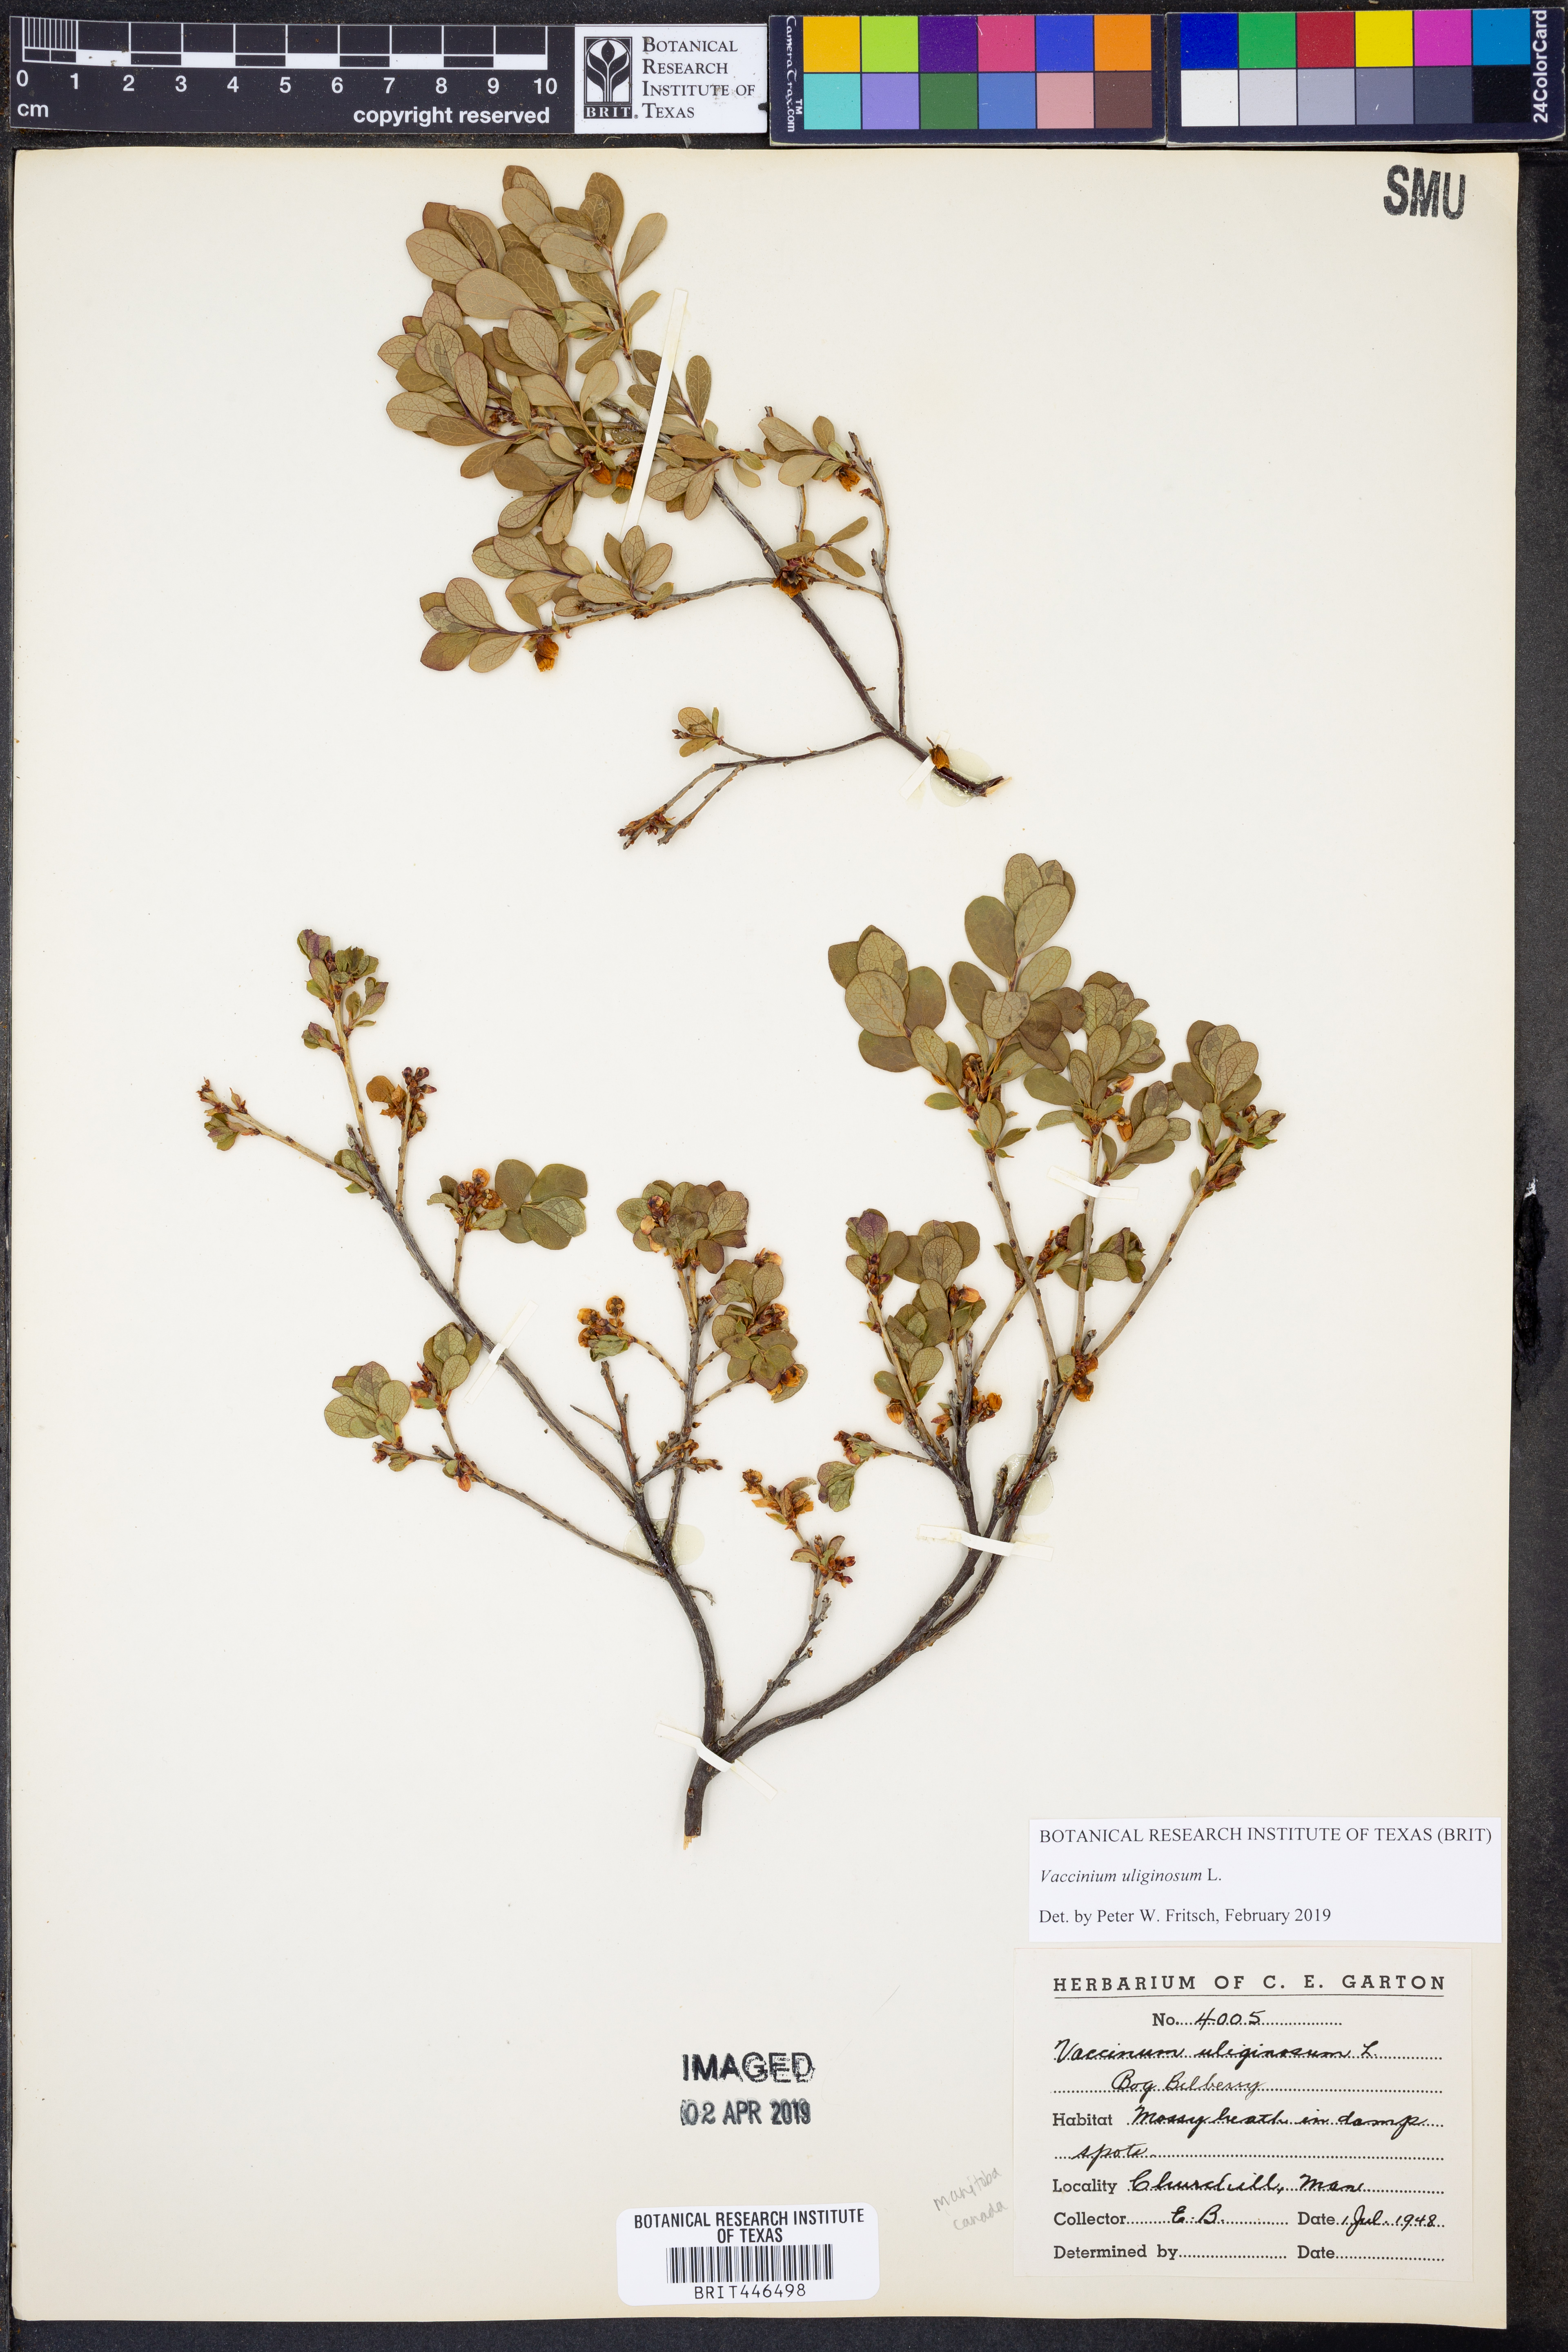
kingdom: Plantae
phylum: Tracheophyta
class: Magnoliopsida
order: Ericales
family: Ericaceae
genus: Vaccinium
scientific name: Vaccinium uliginosum
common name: Bog bilberry
